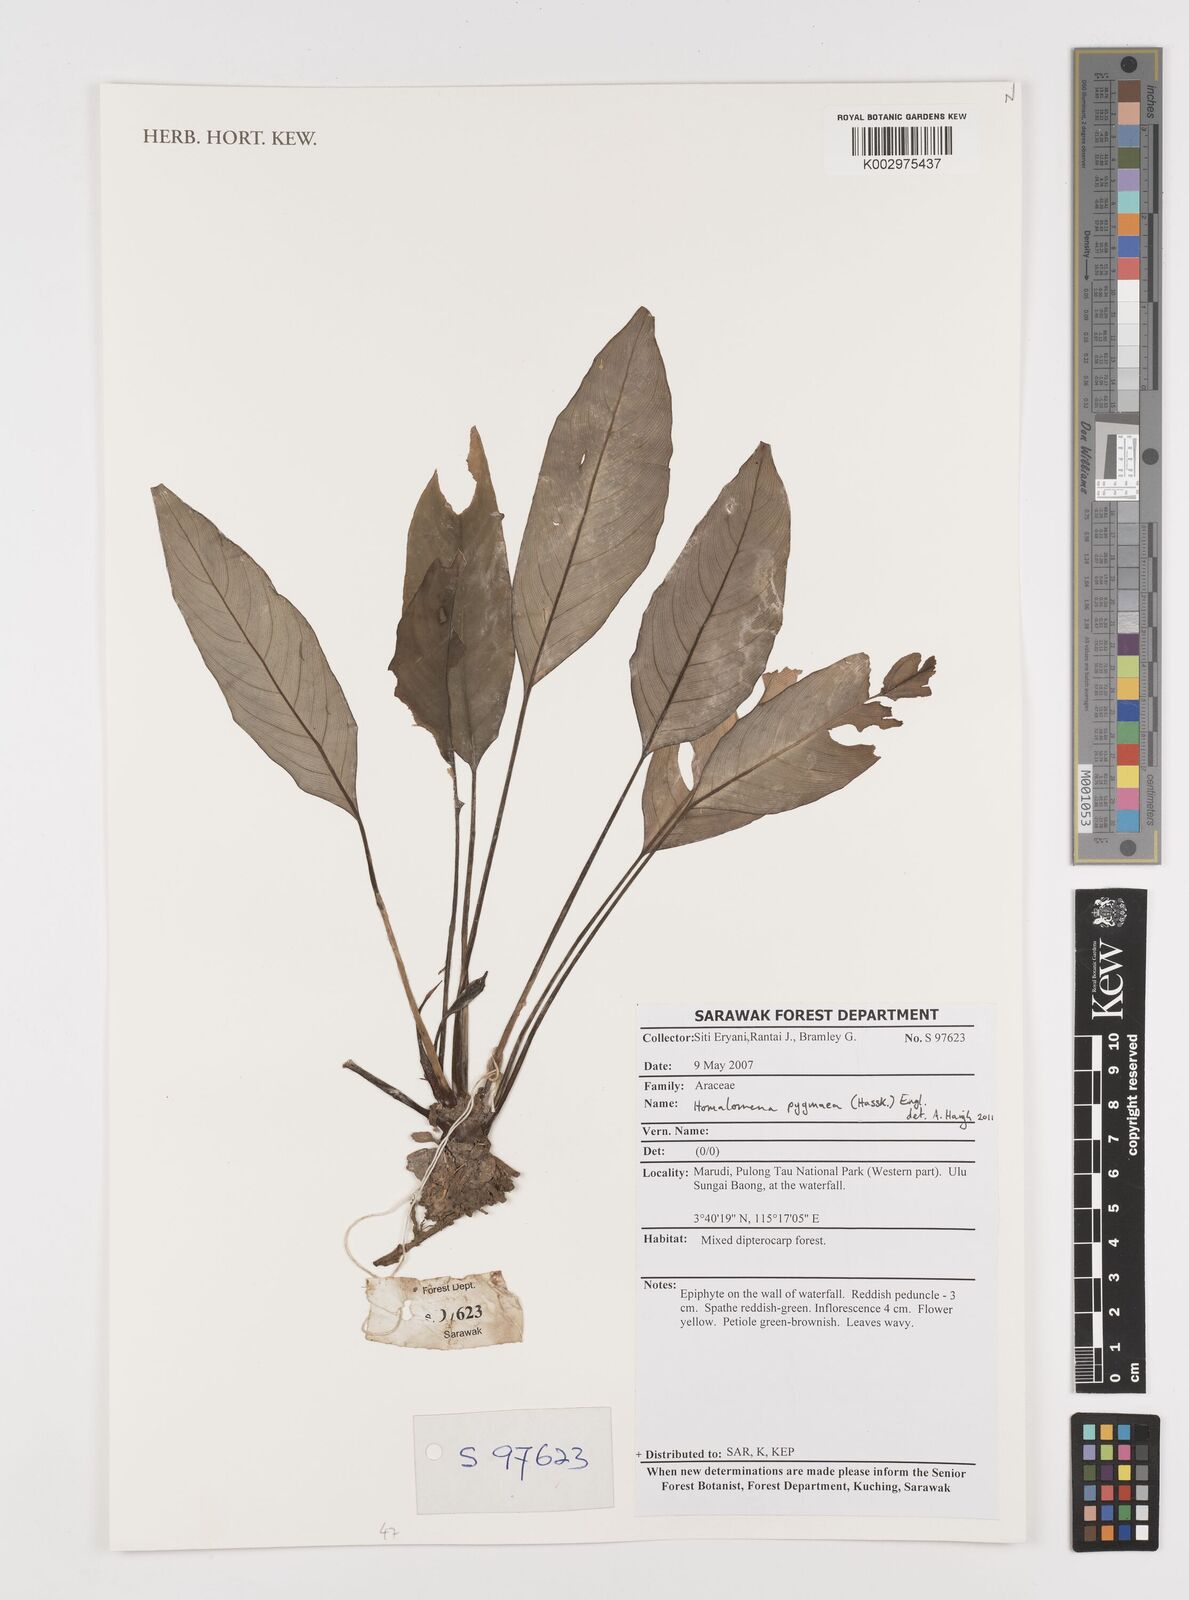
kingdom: Plantae
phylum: Tracheophyta
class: Liliopsida
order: Alismatales
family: Araceae
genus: Homalomena
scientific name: Homalomena humilis
